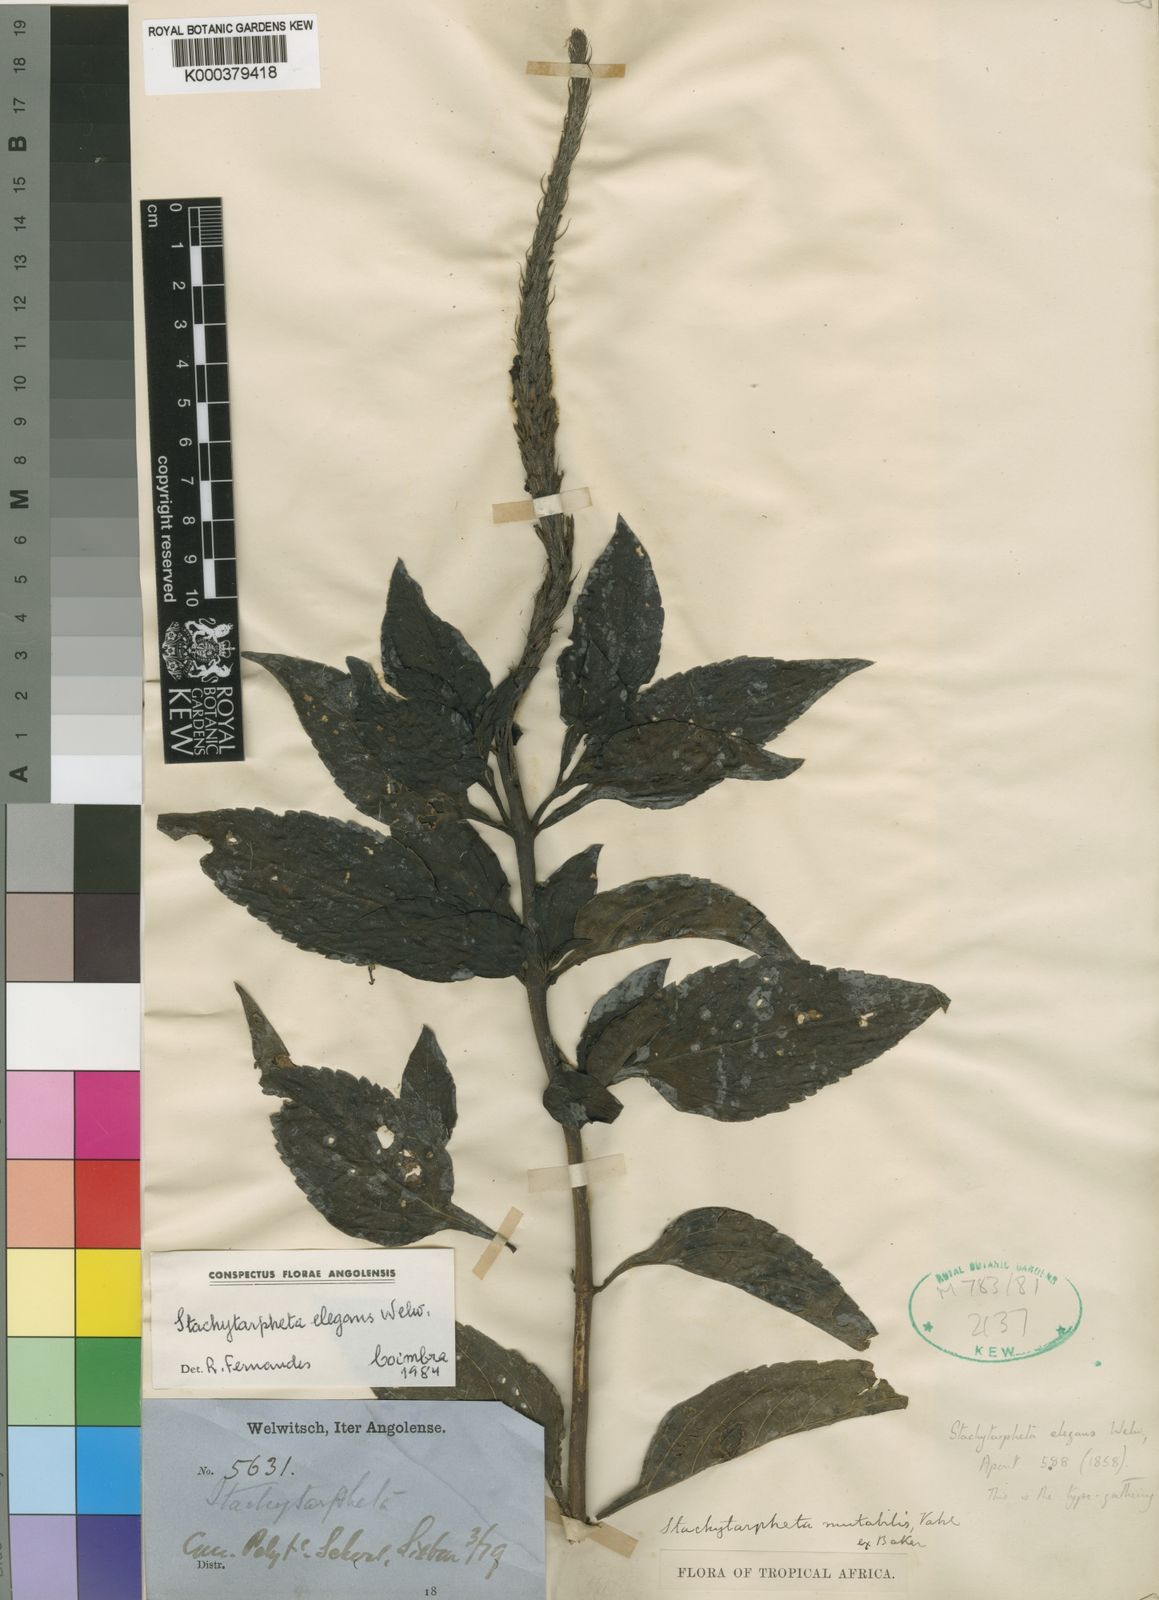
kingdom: Plantae
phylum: Tracheophyta
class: Magnoliopsida
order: Lamiales
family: Verbenaceae
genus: Stachytarpheta
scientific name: Stachytarpheta elegans
